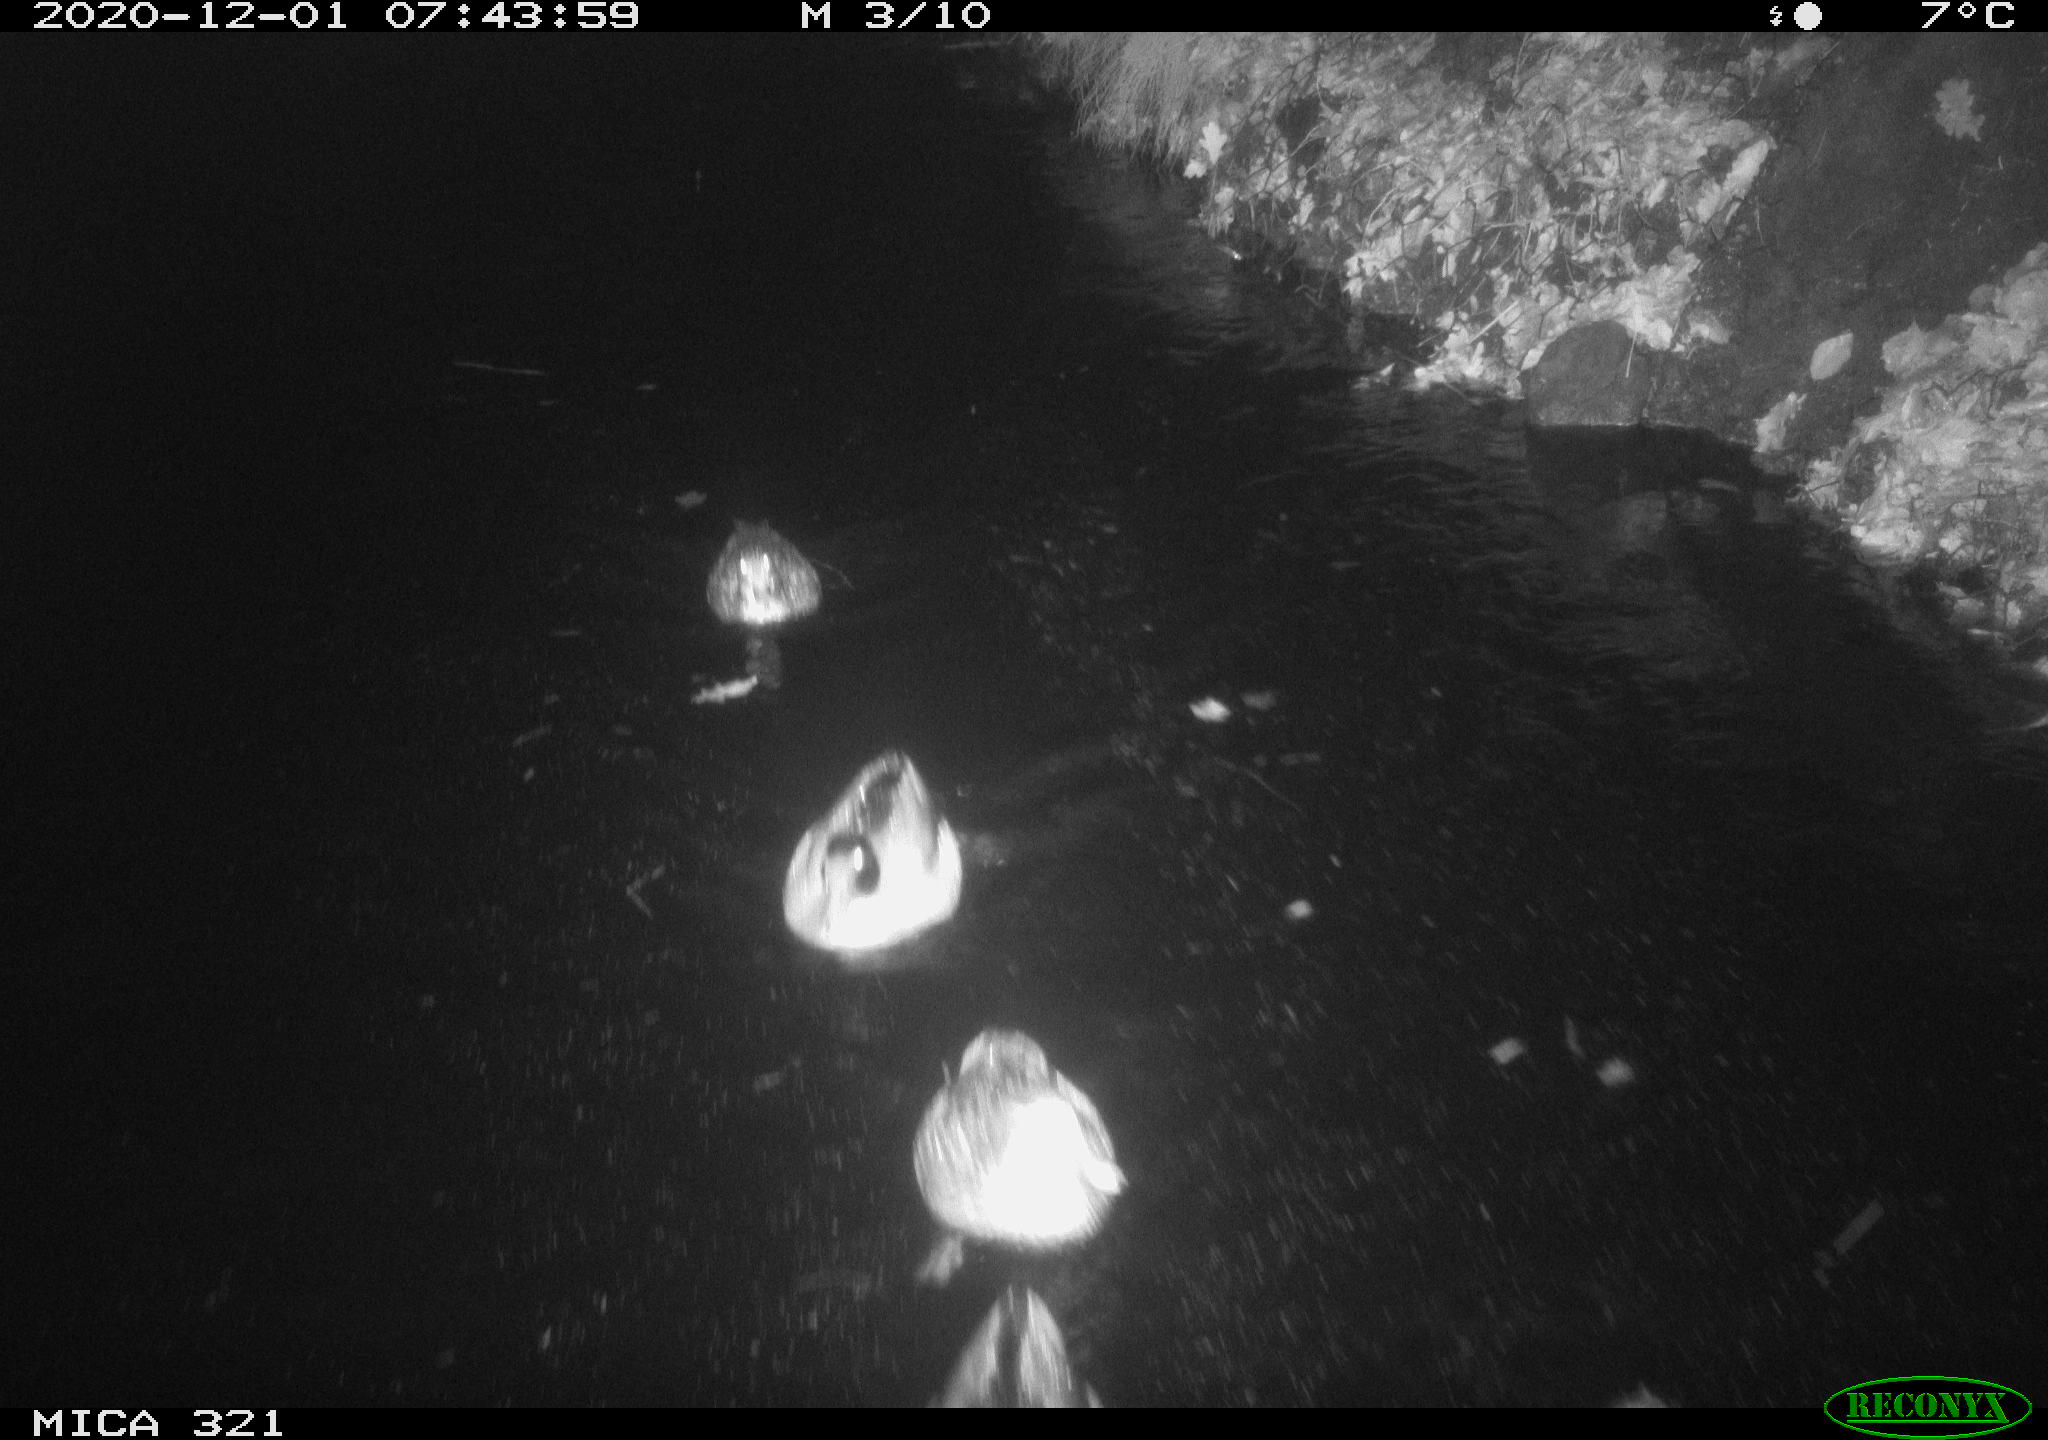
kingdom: Animalia
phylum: Chordata
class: Aves
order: Anseriformes
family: Anatidae
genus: Anas
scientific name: Anas platyrhynchos
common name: Mallard
